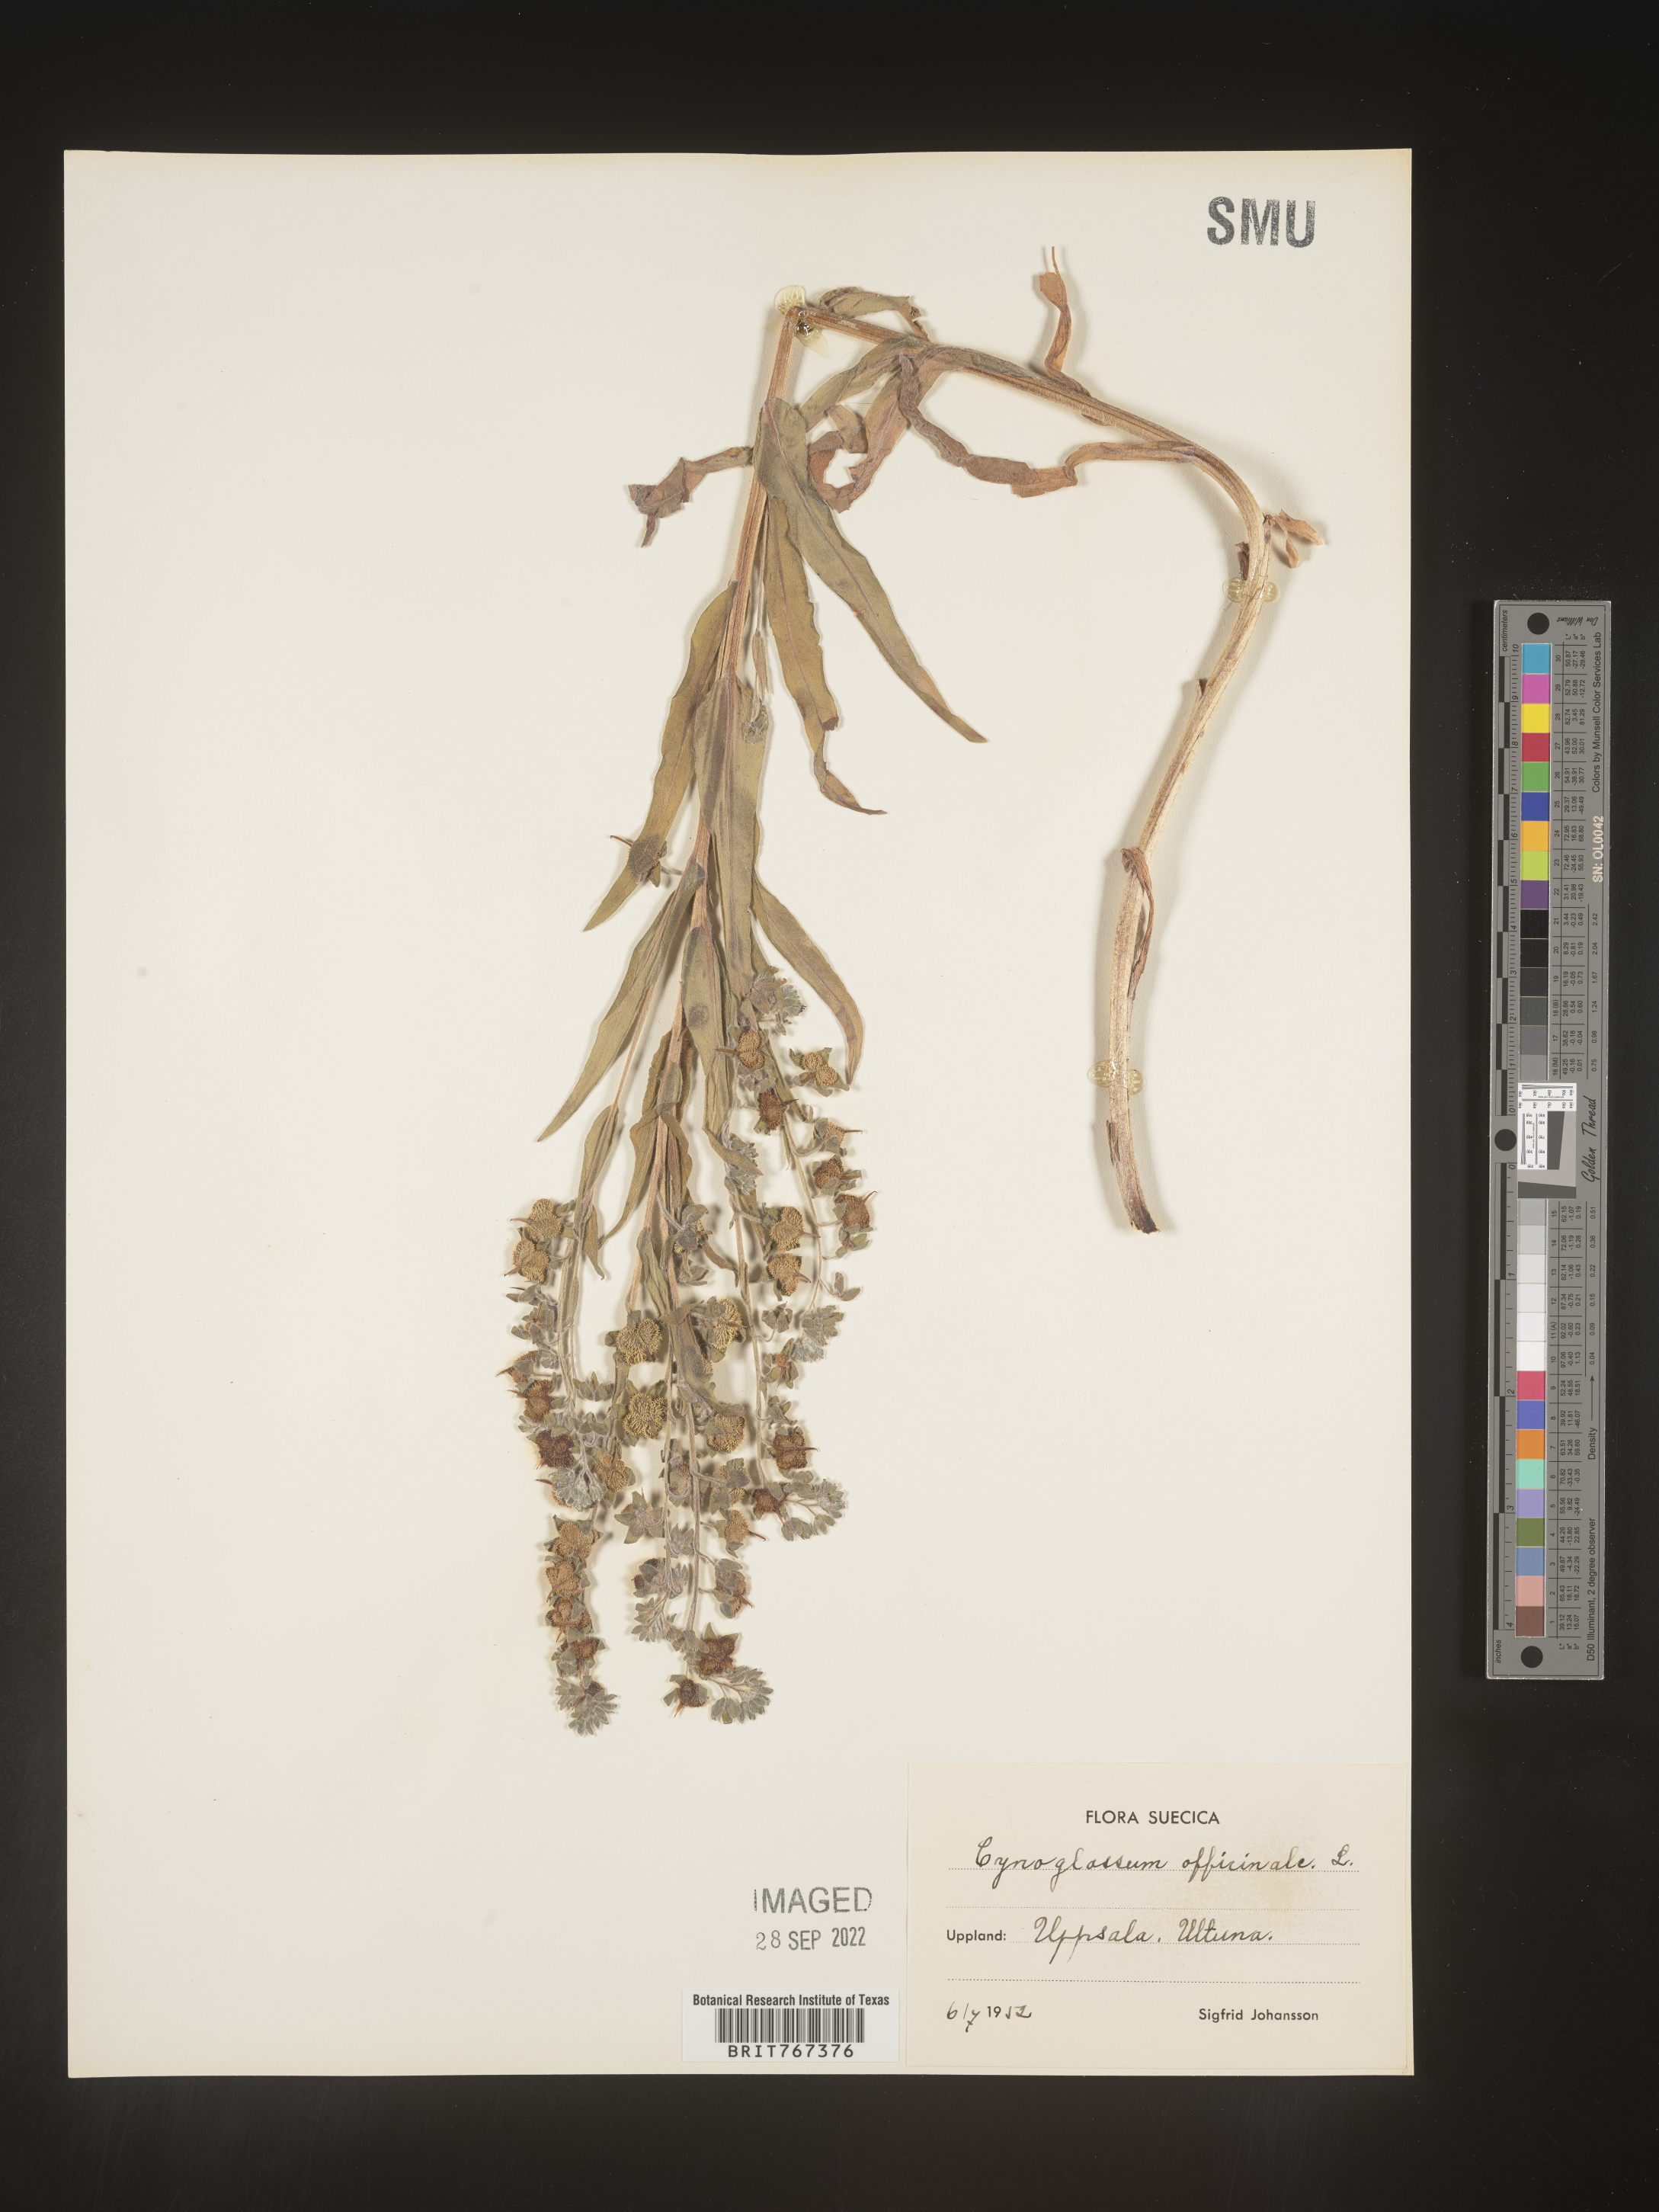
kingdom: Plantae
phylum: Tracheophyta
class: Magnoliopsida
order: Boraginales
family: Boraginaceae
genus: Cynoglossum
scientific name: Cynoglossum
